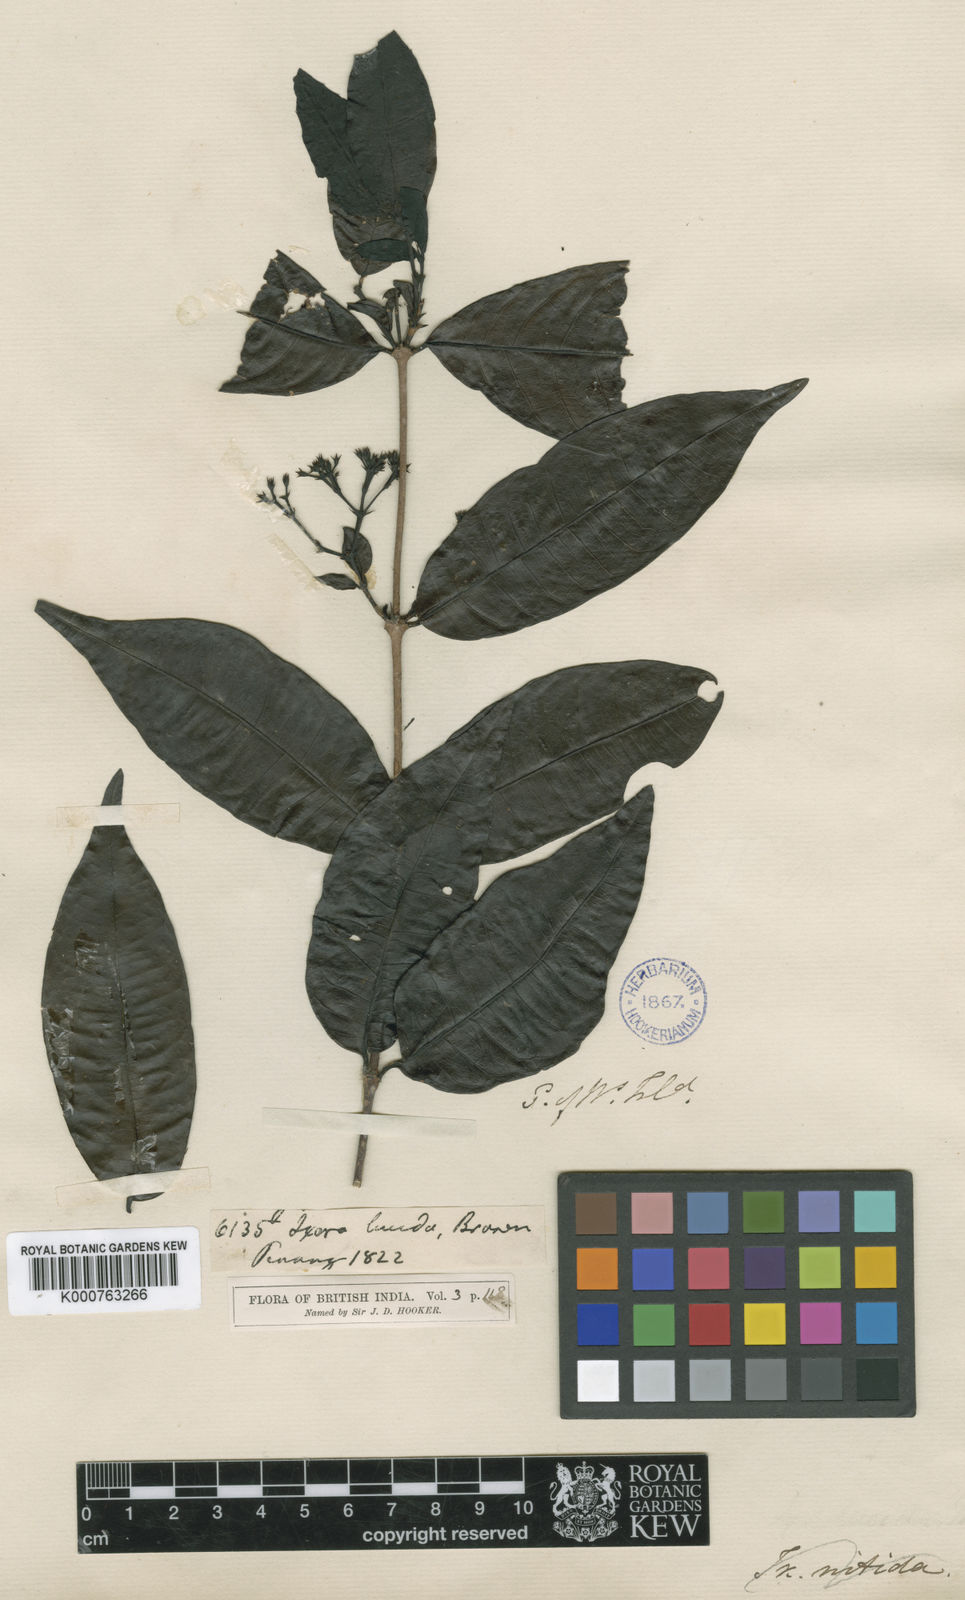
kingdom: Plantae
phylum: Tracheophyta
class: Magnoliopsida
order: Gentianales
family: Rubiaceae
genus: Ixora
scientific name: Ixora lucida
